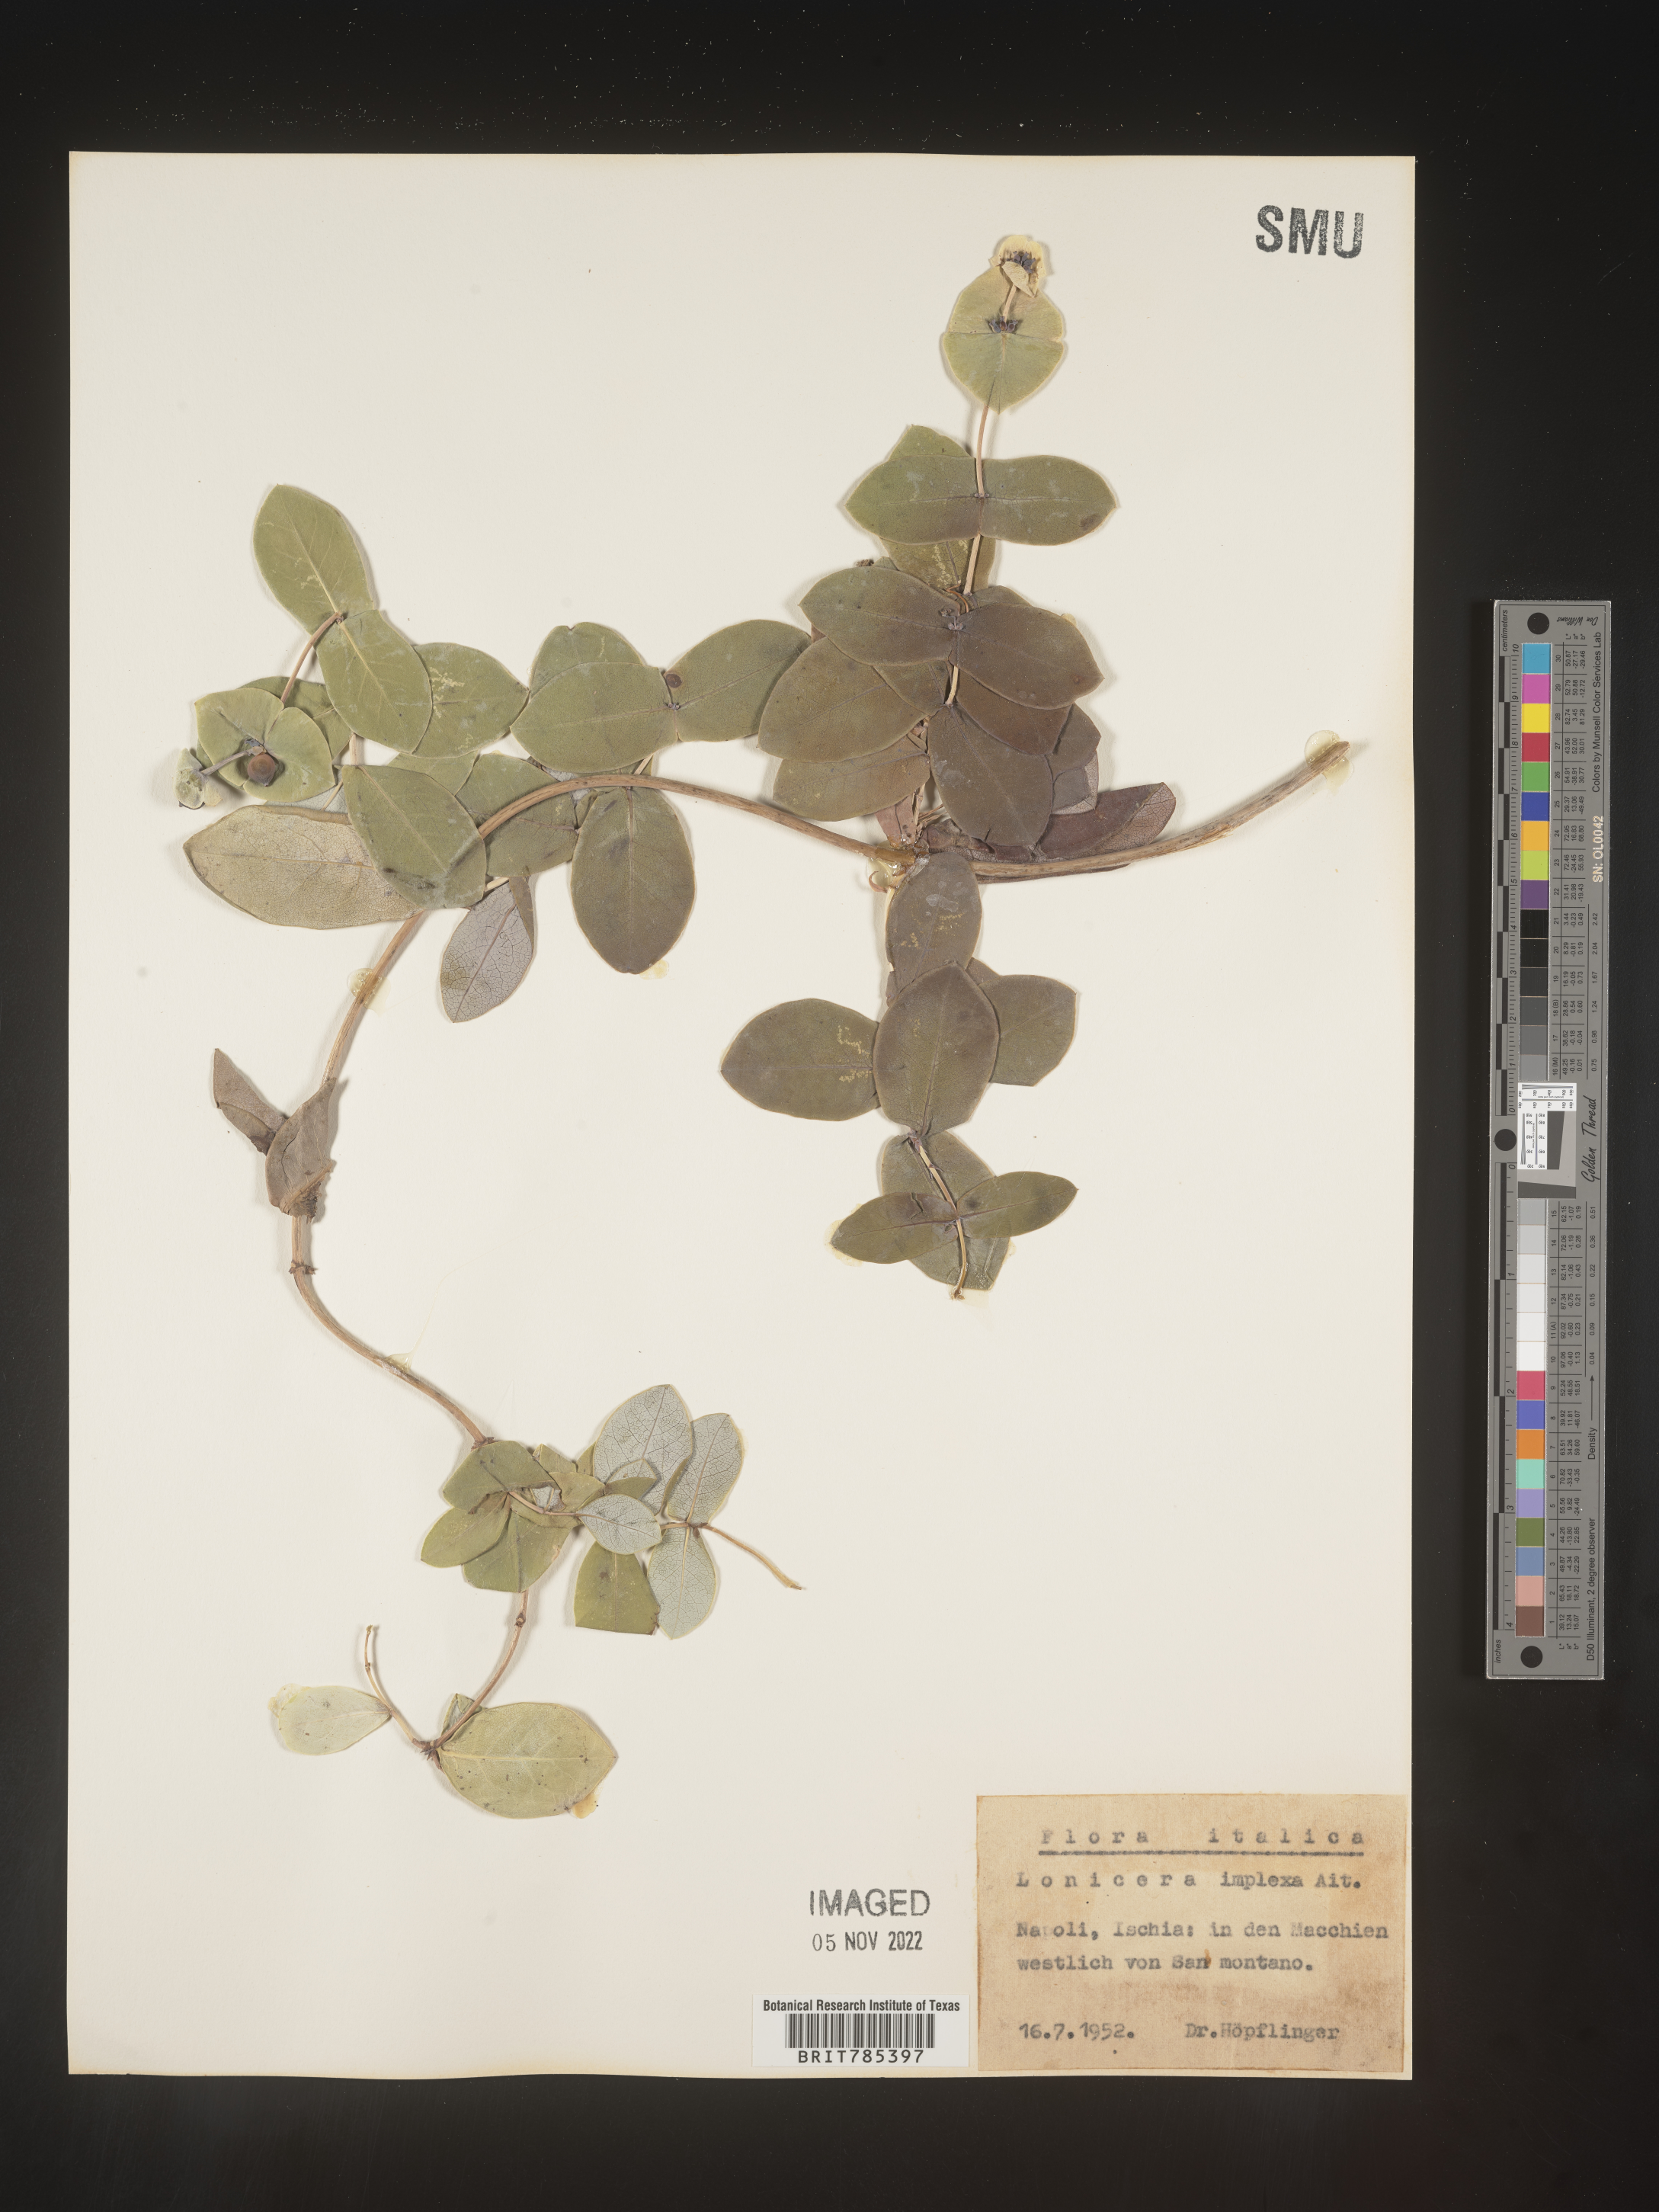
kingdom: Plantae
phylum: Tracheophyta
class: Magnoliopsida
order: Dipsacales
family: Caprifoliaceae
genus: Lonicera
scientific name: Lonicera
